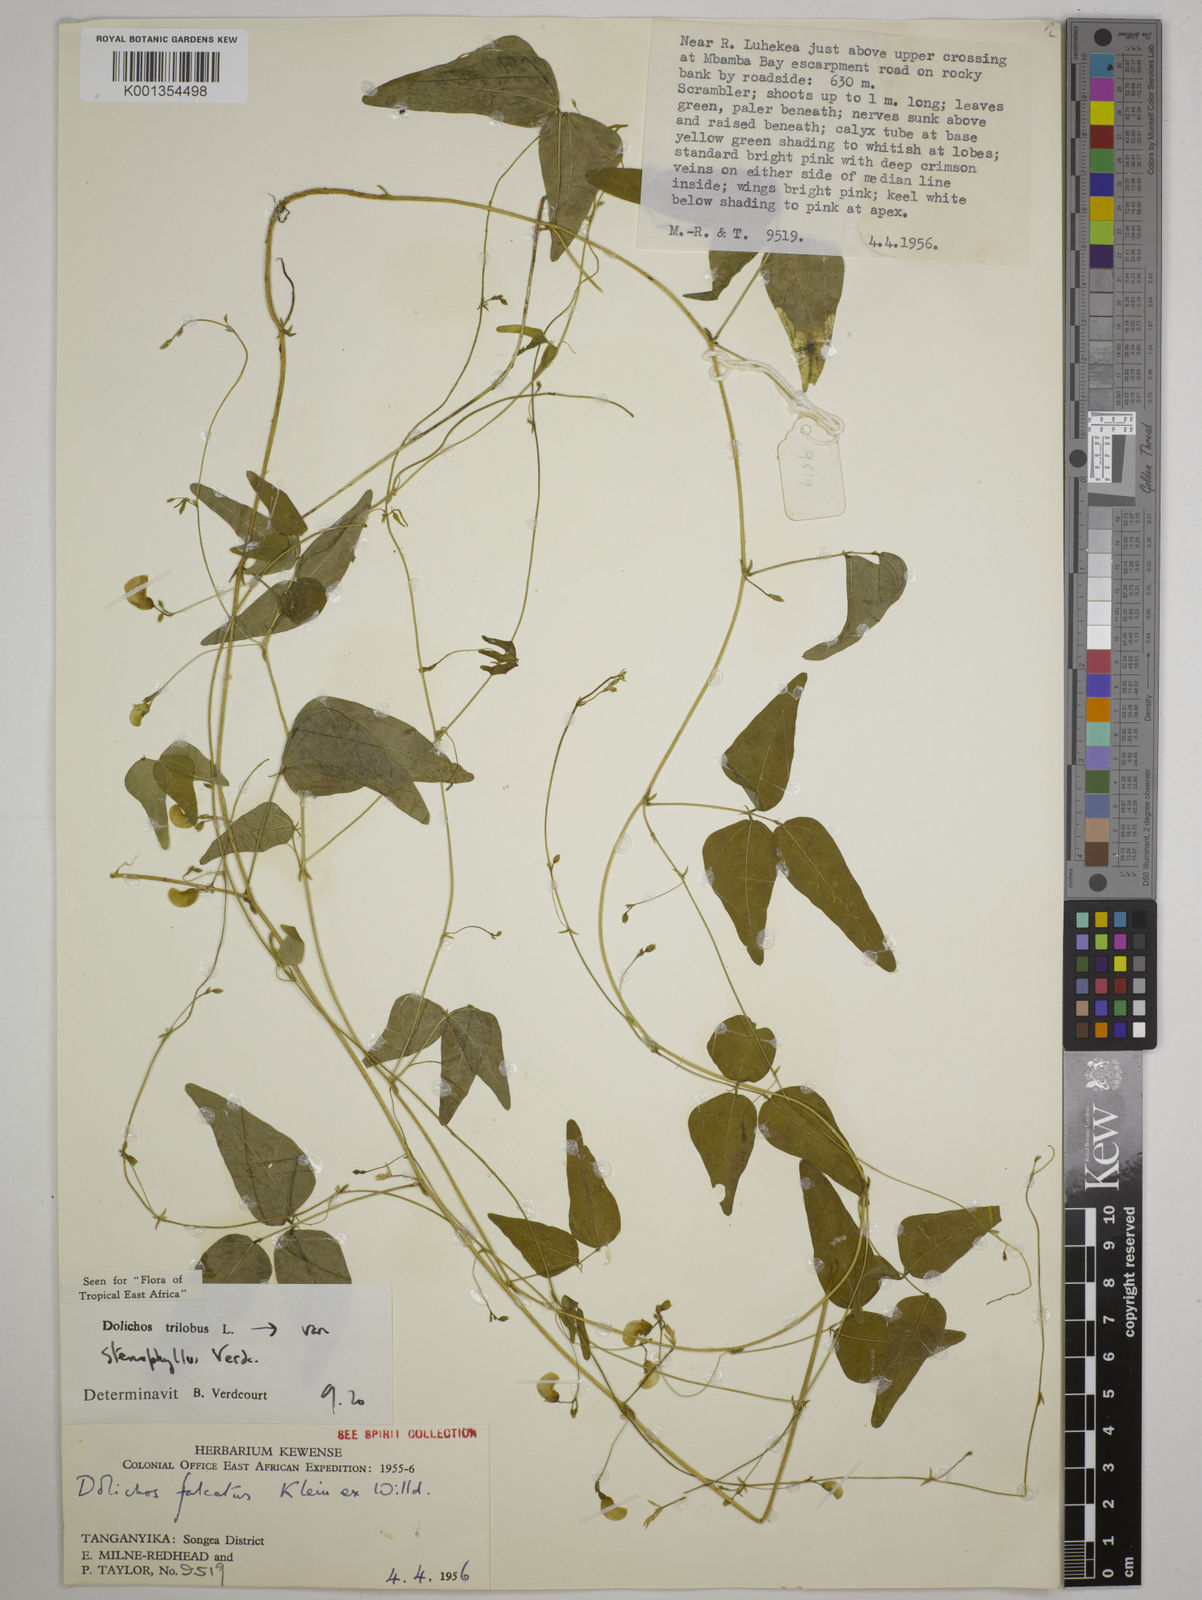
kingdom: Plantae
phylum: Tracheophyta
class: Magnoliopsida
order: Fabales
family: Fabaceae
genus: Dolichos
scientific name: Dolichos trilobus
